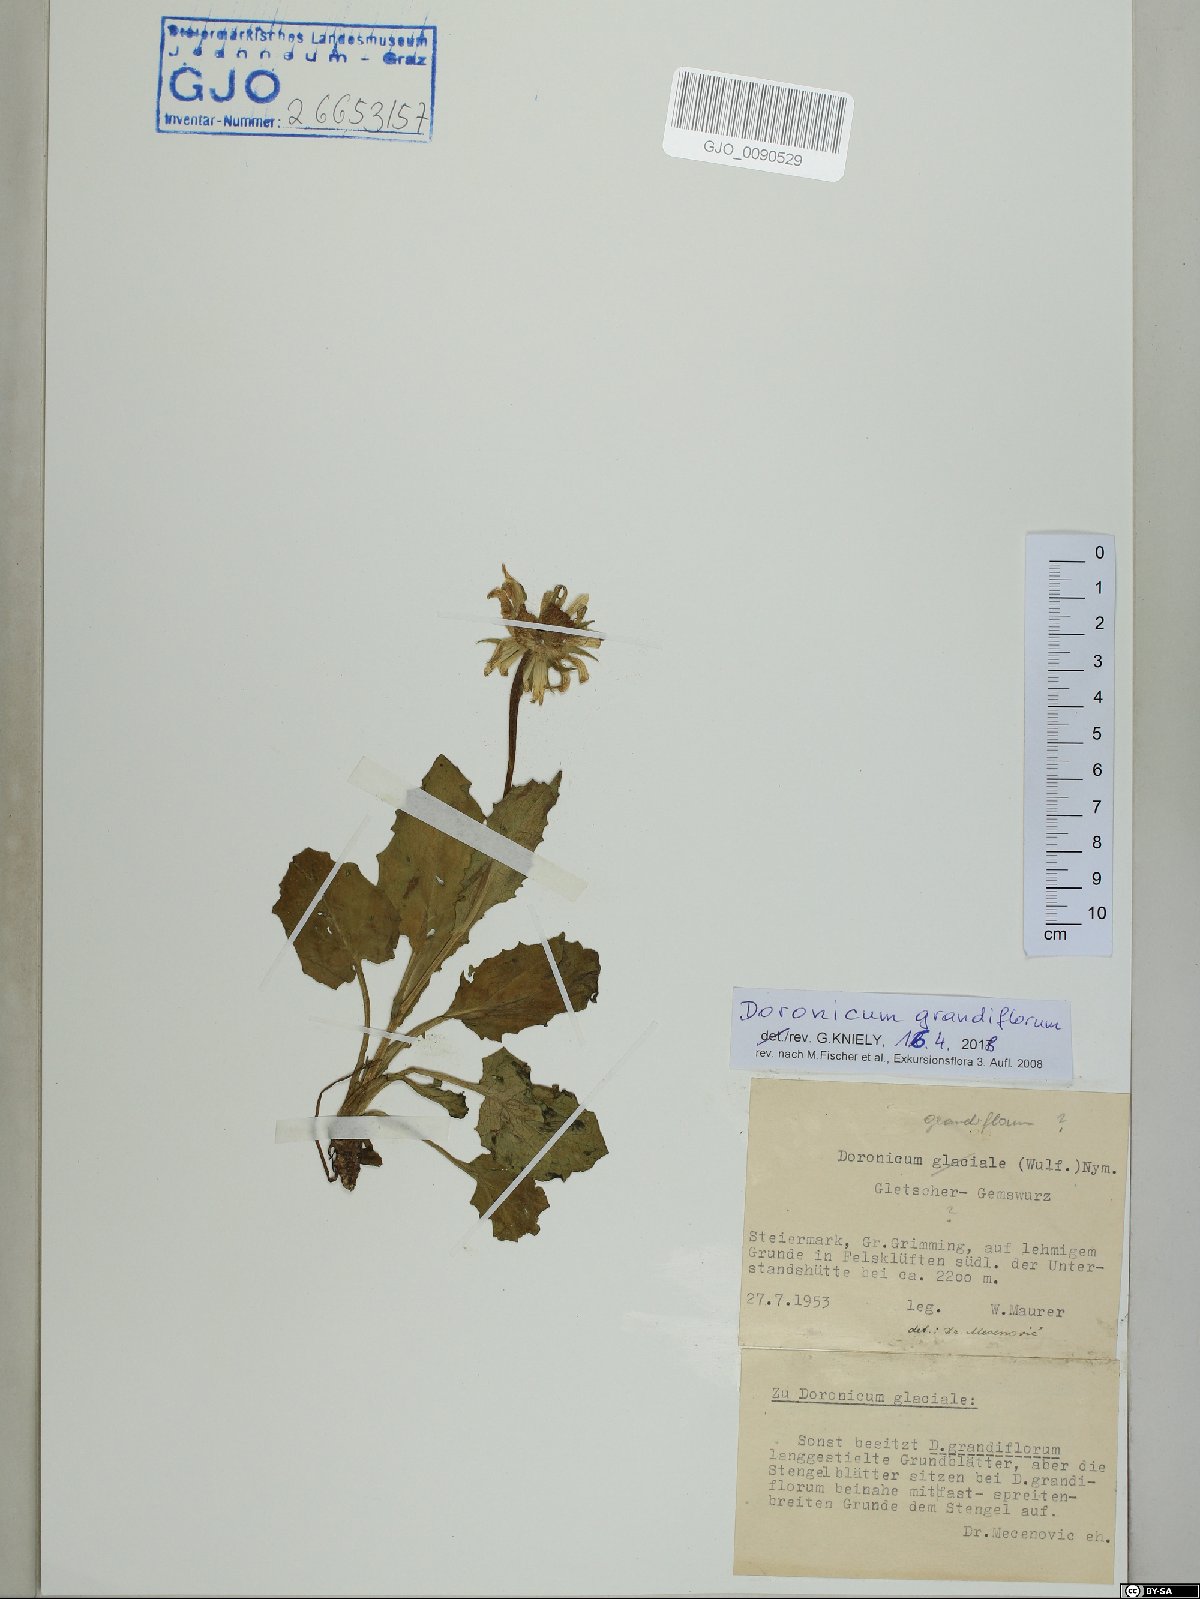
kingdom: Plantae
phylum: Tracheophyta
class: Magnoliopsida
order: Asterales
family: Asteraceae
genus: Doronicum
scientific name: Doronicum grandiflorum
